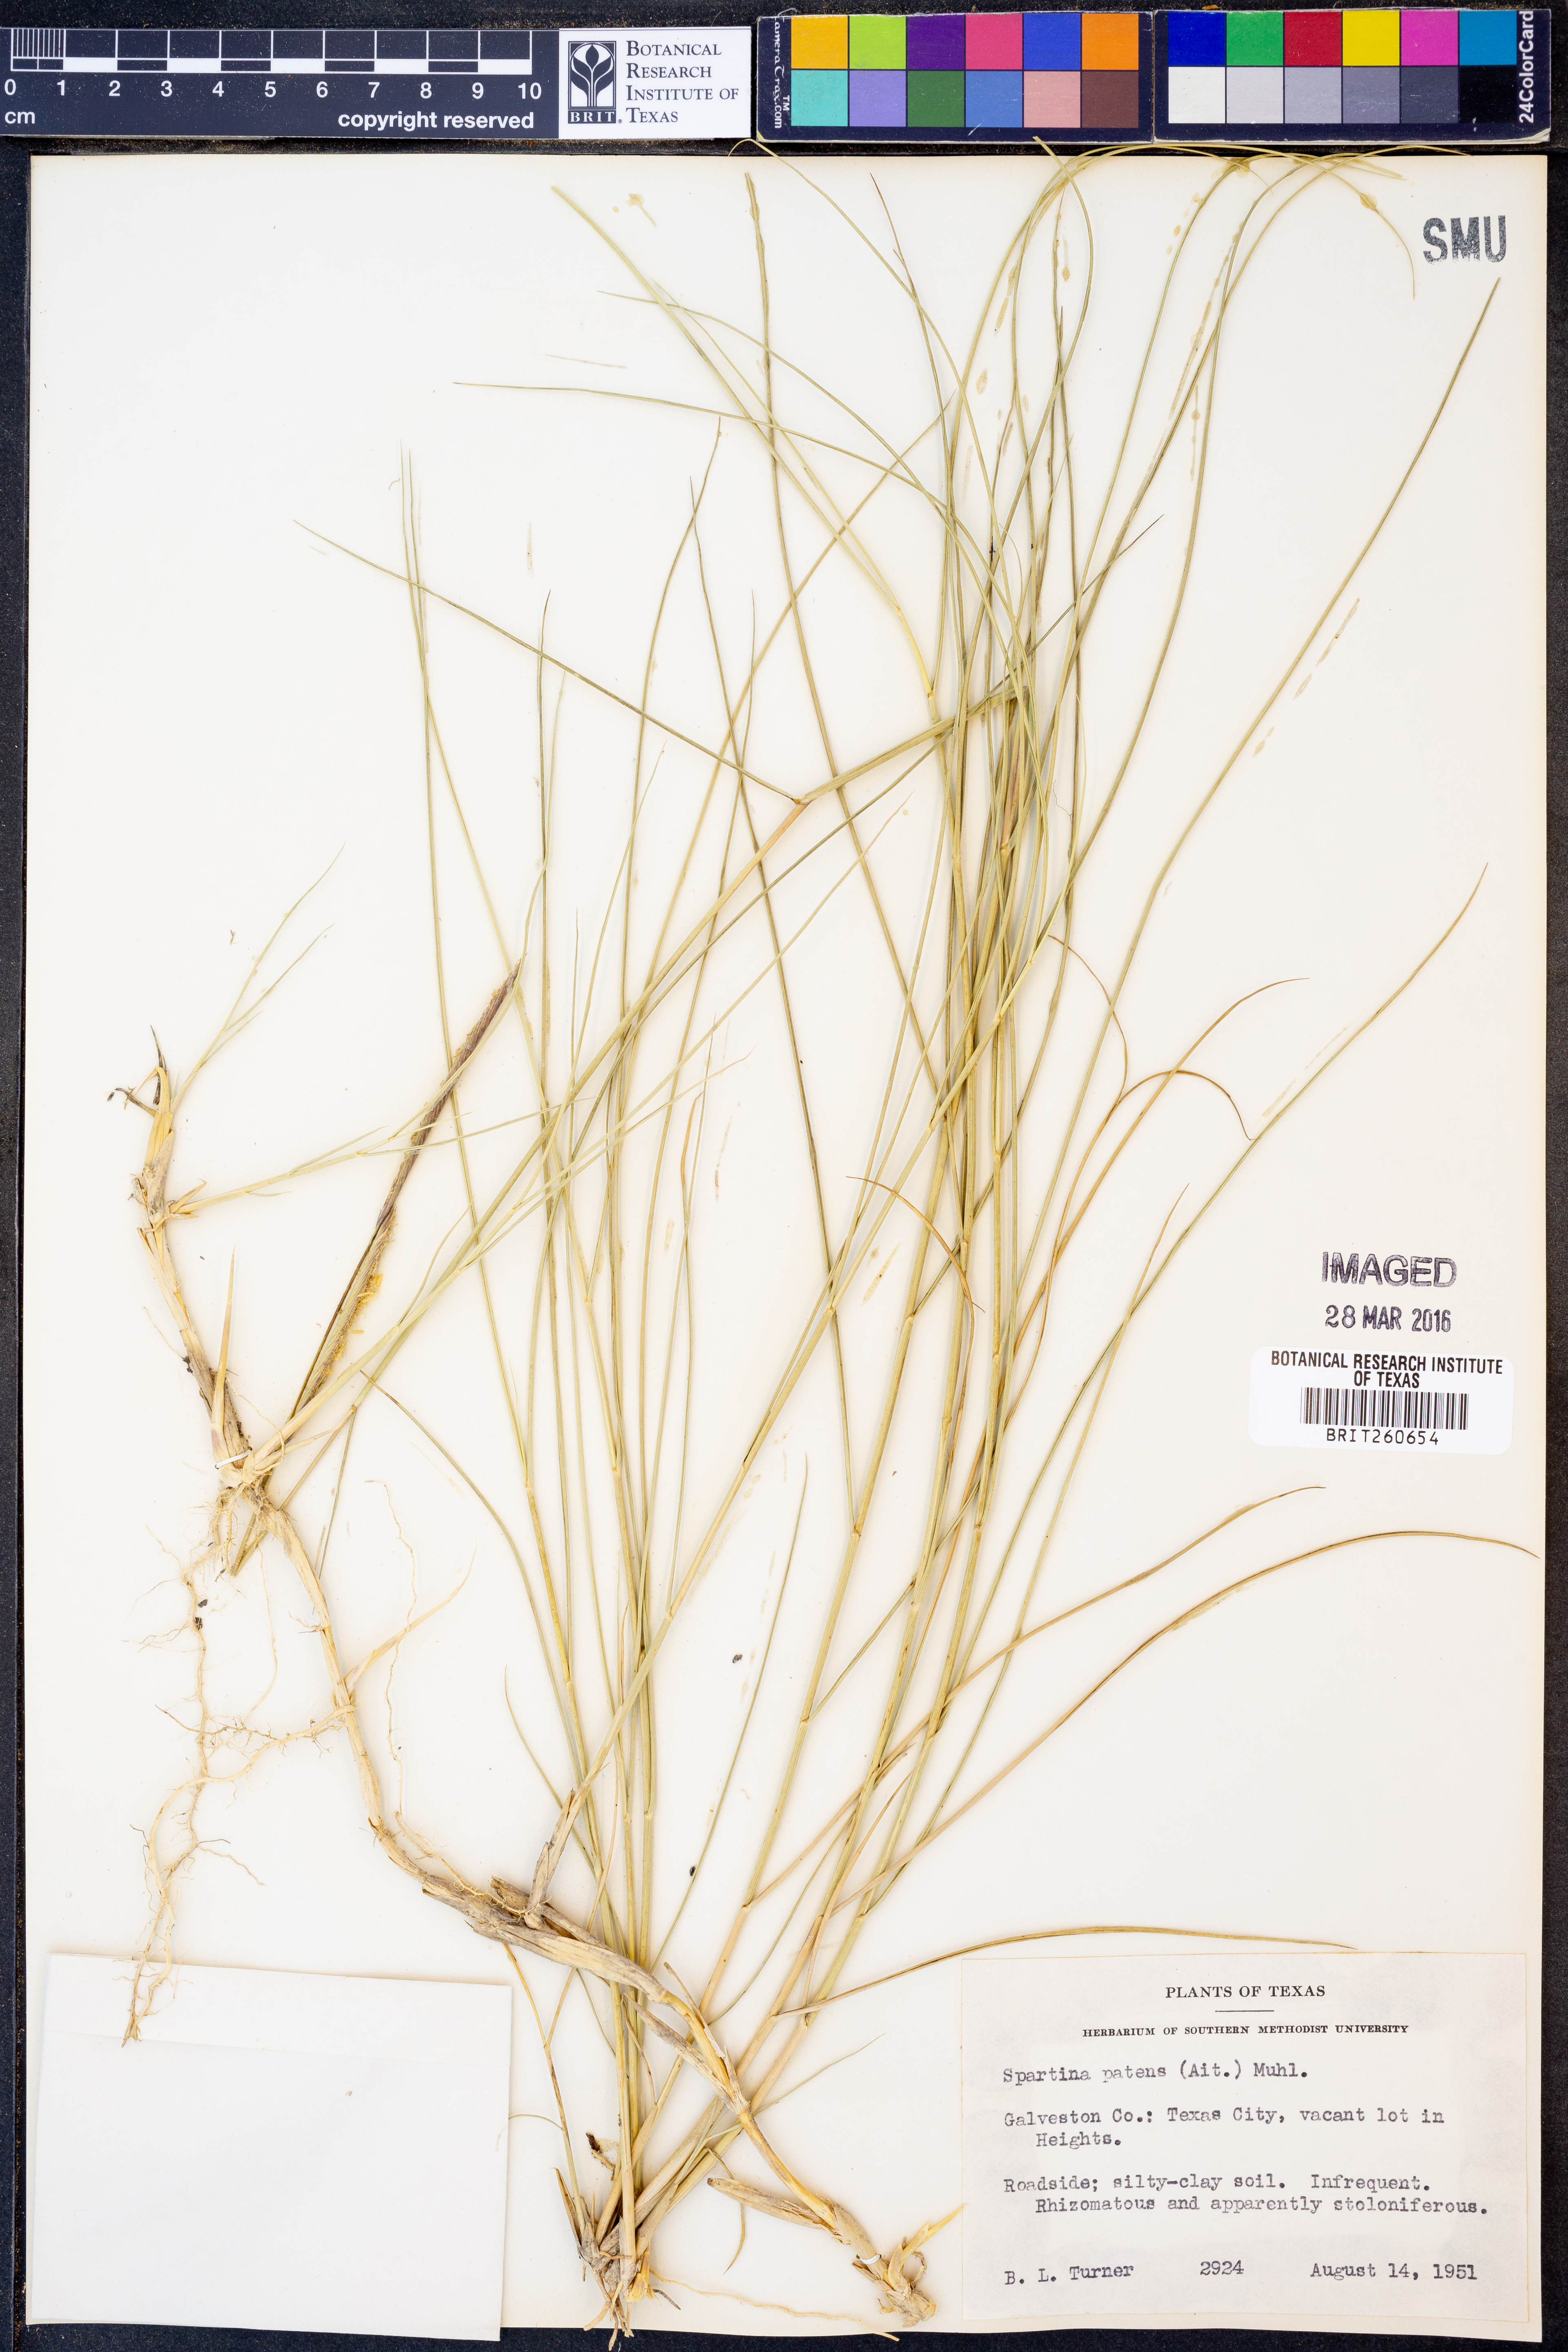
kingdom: Plantae
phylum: Tracheophyta
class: Liliopsida
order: Poales
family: Poaceae
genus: Sporobolus
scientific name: Sporobolus pumilus
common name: Highwater grass
